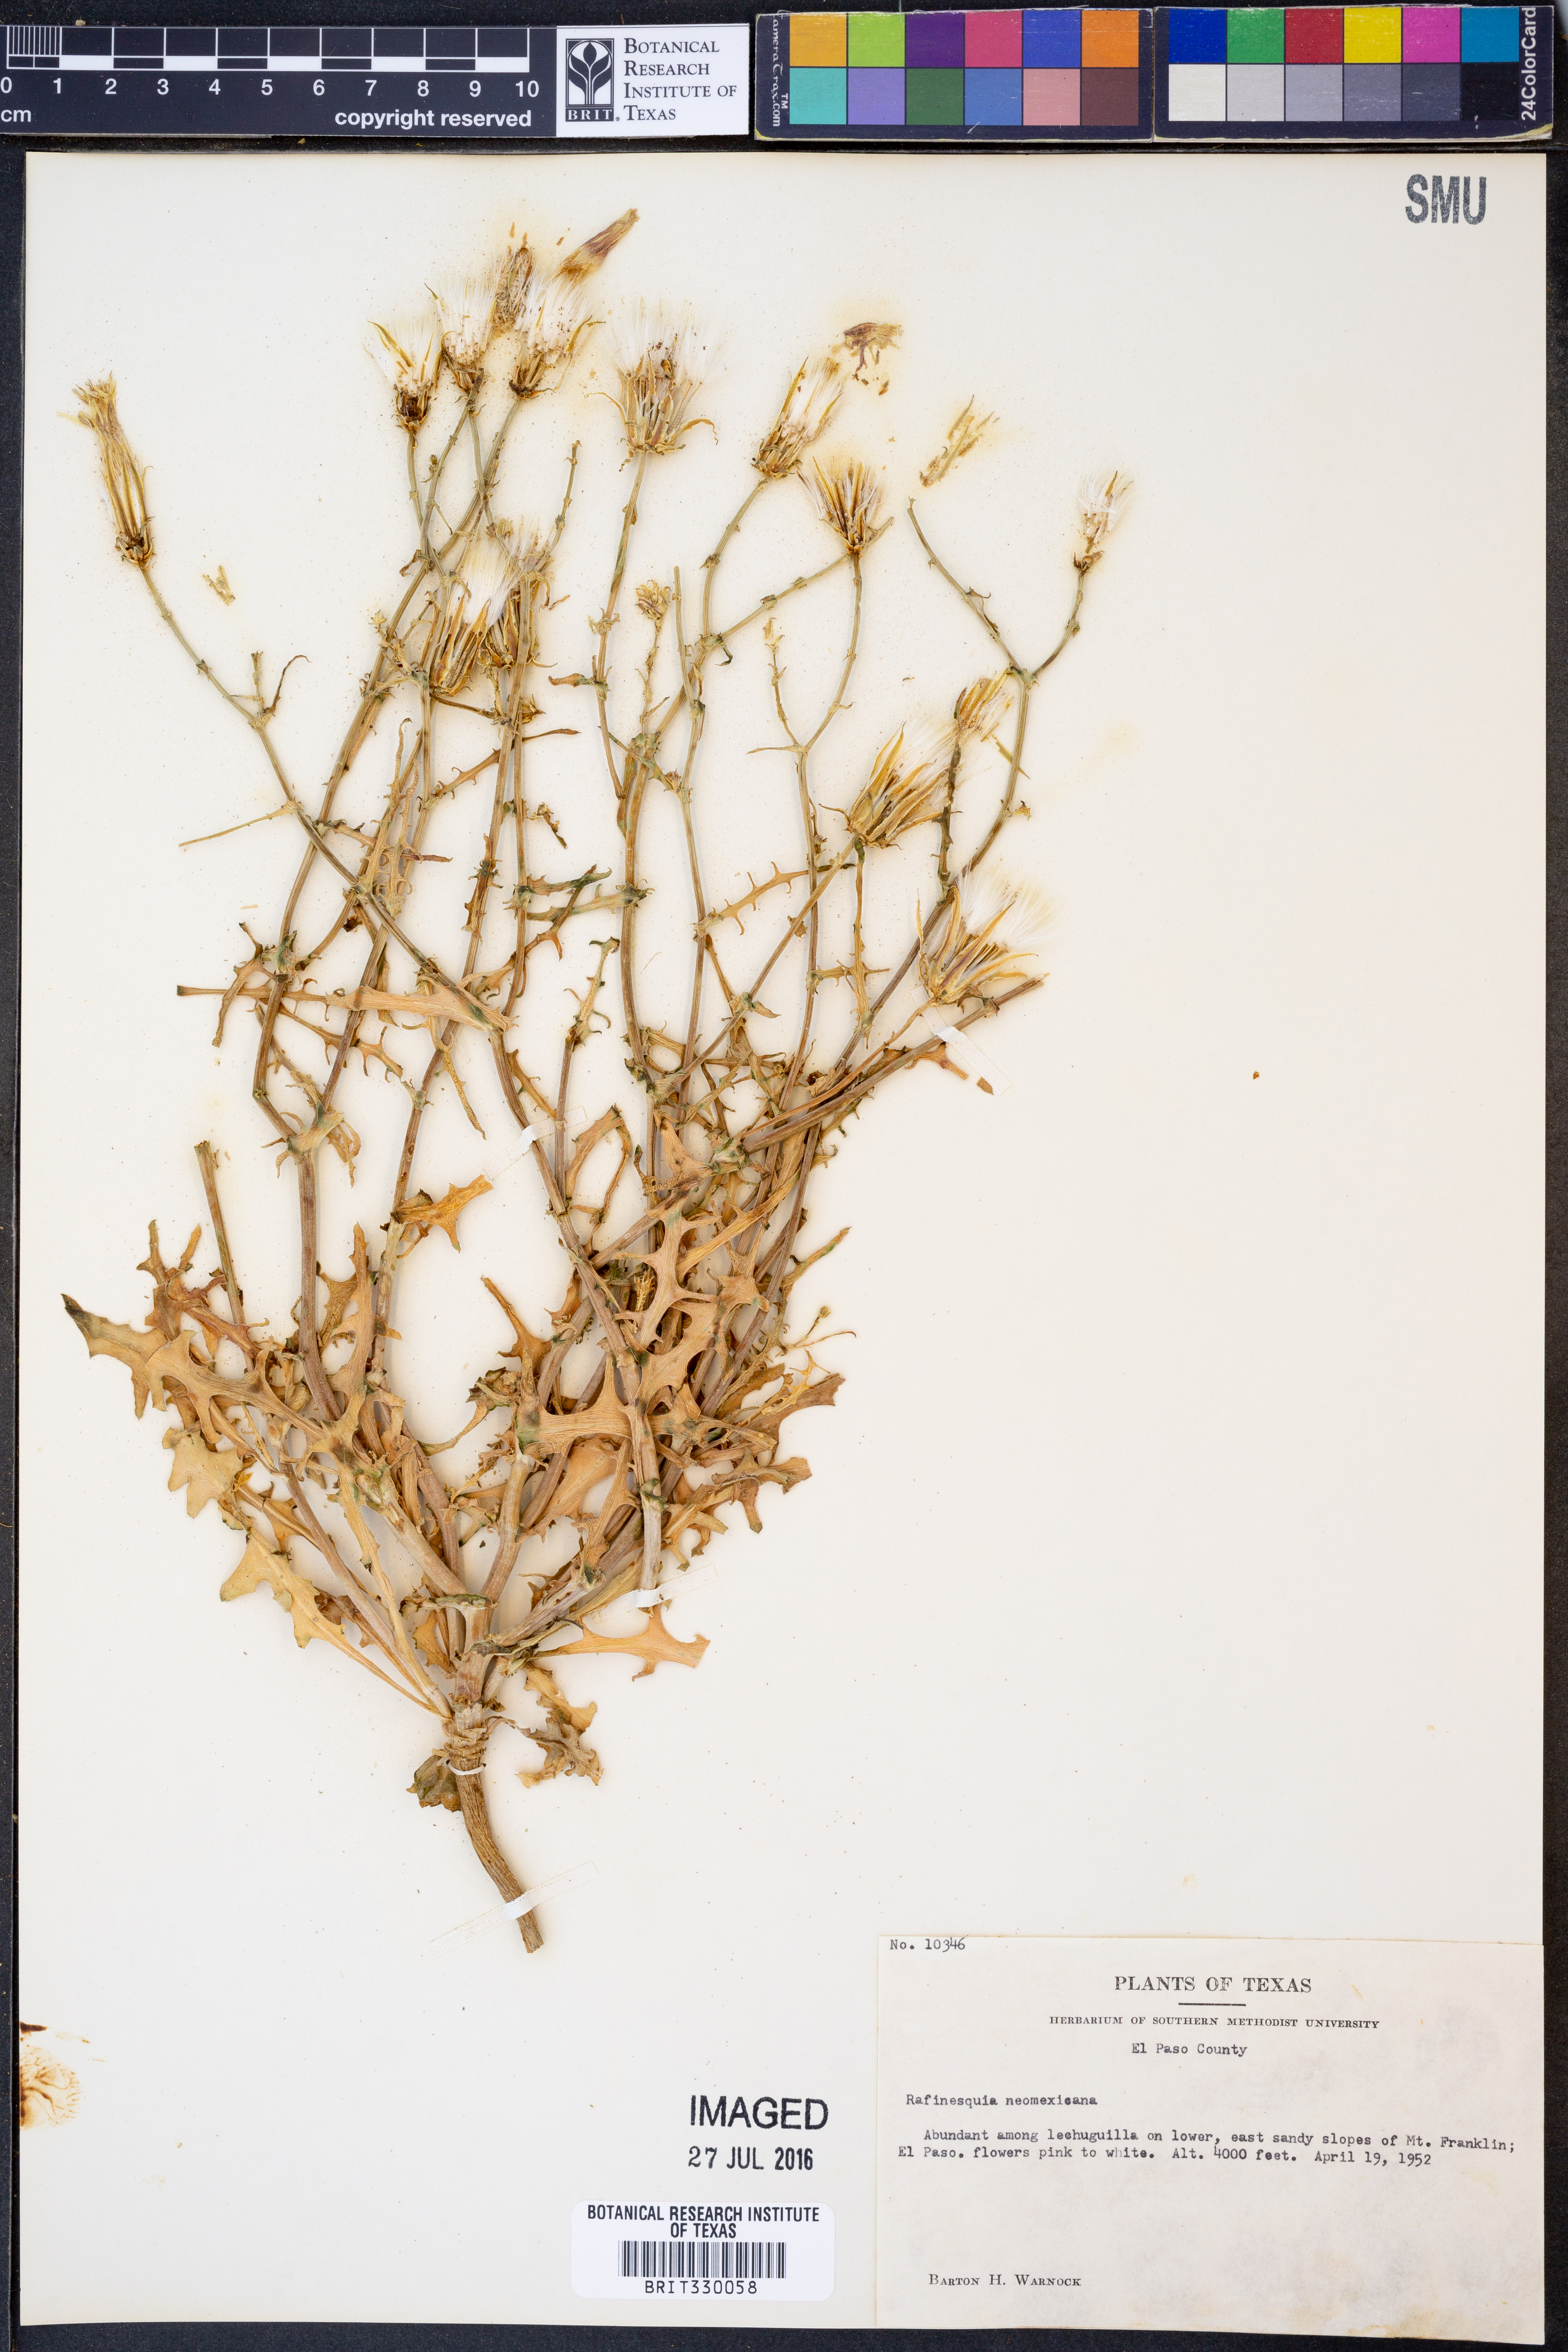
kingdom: Plantae
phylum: Tracheophyta
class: Magnoliopsida
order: Asterales
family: Asteraceae
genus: Rafinesquia
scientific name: Rafinesquia neomexicana
